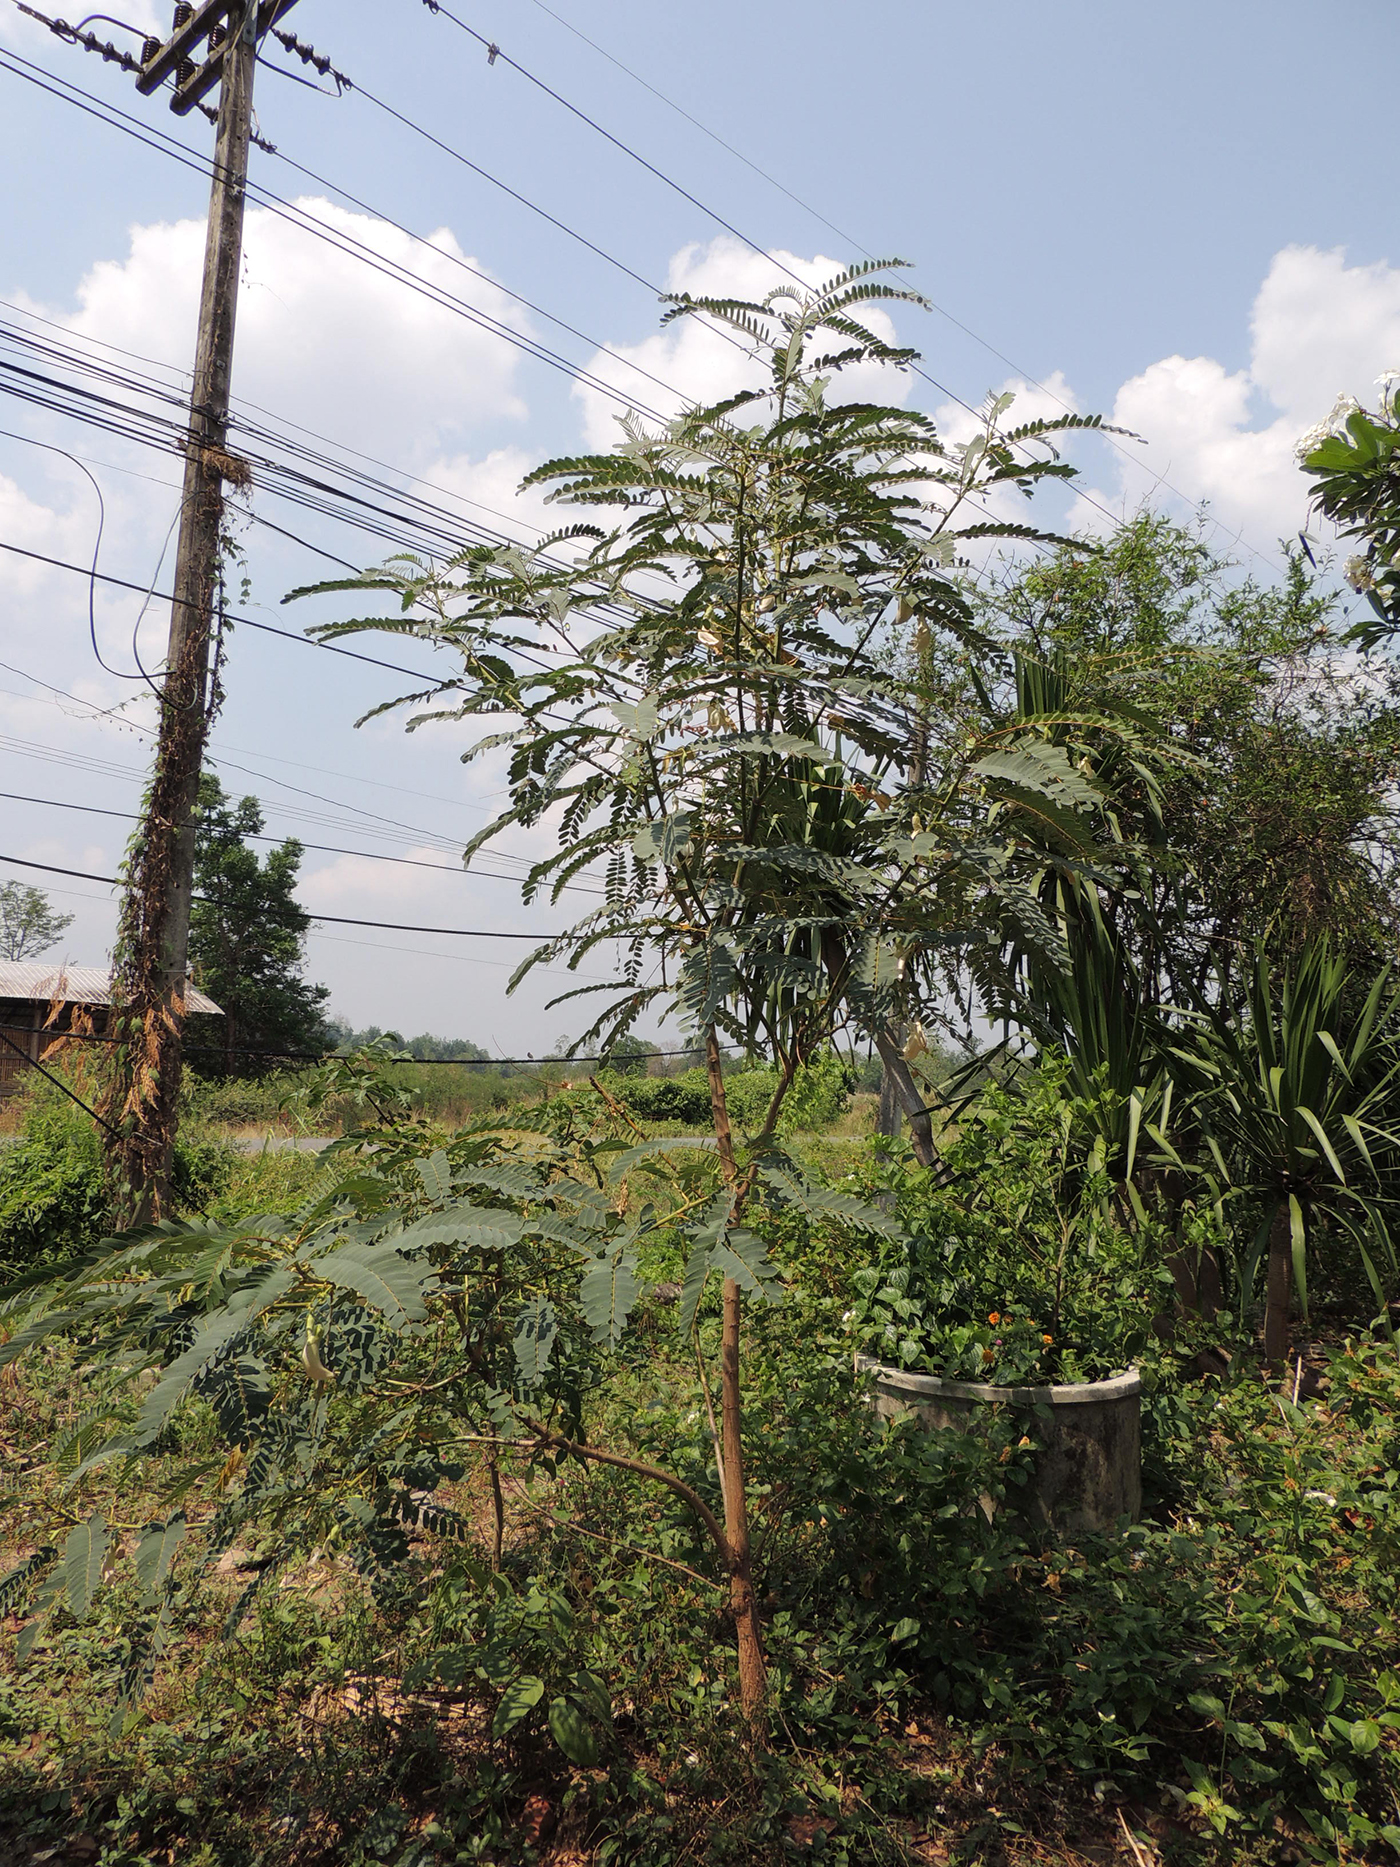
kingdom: Plantae
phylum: Tracheophyta
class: Magnoliopsida
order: Fabales
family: Fabaceae
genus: Sesbania
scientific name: Sesbania grandiflora
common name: Vegetable-hummingbird
